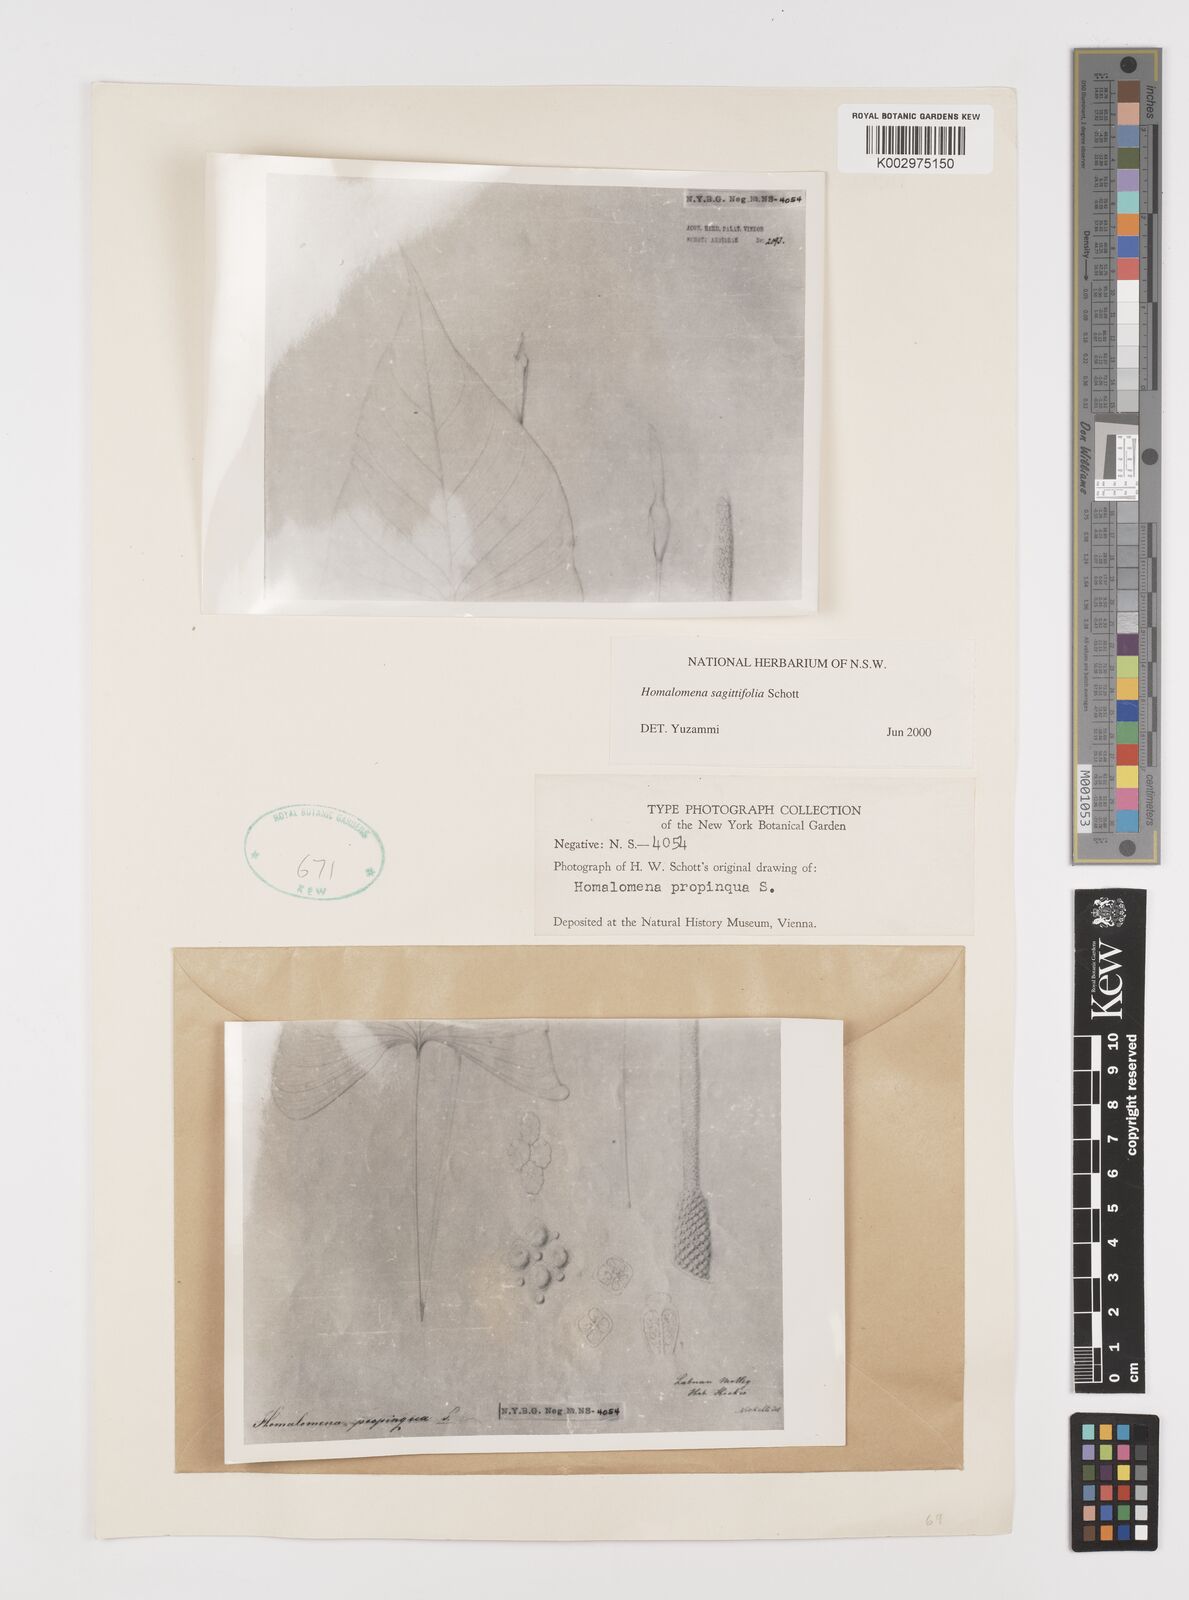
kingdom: Plantae
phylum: Tracheophyta
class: Liliopsida
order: Alismatales
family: Araceae
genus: Homalomena
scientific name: Homalomena rostrata
